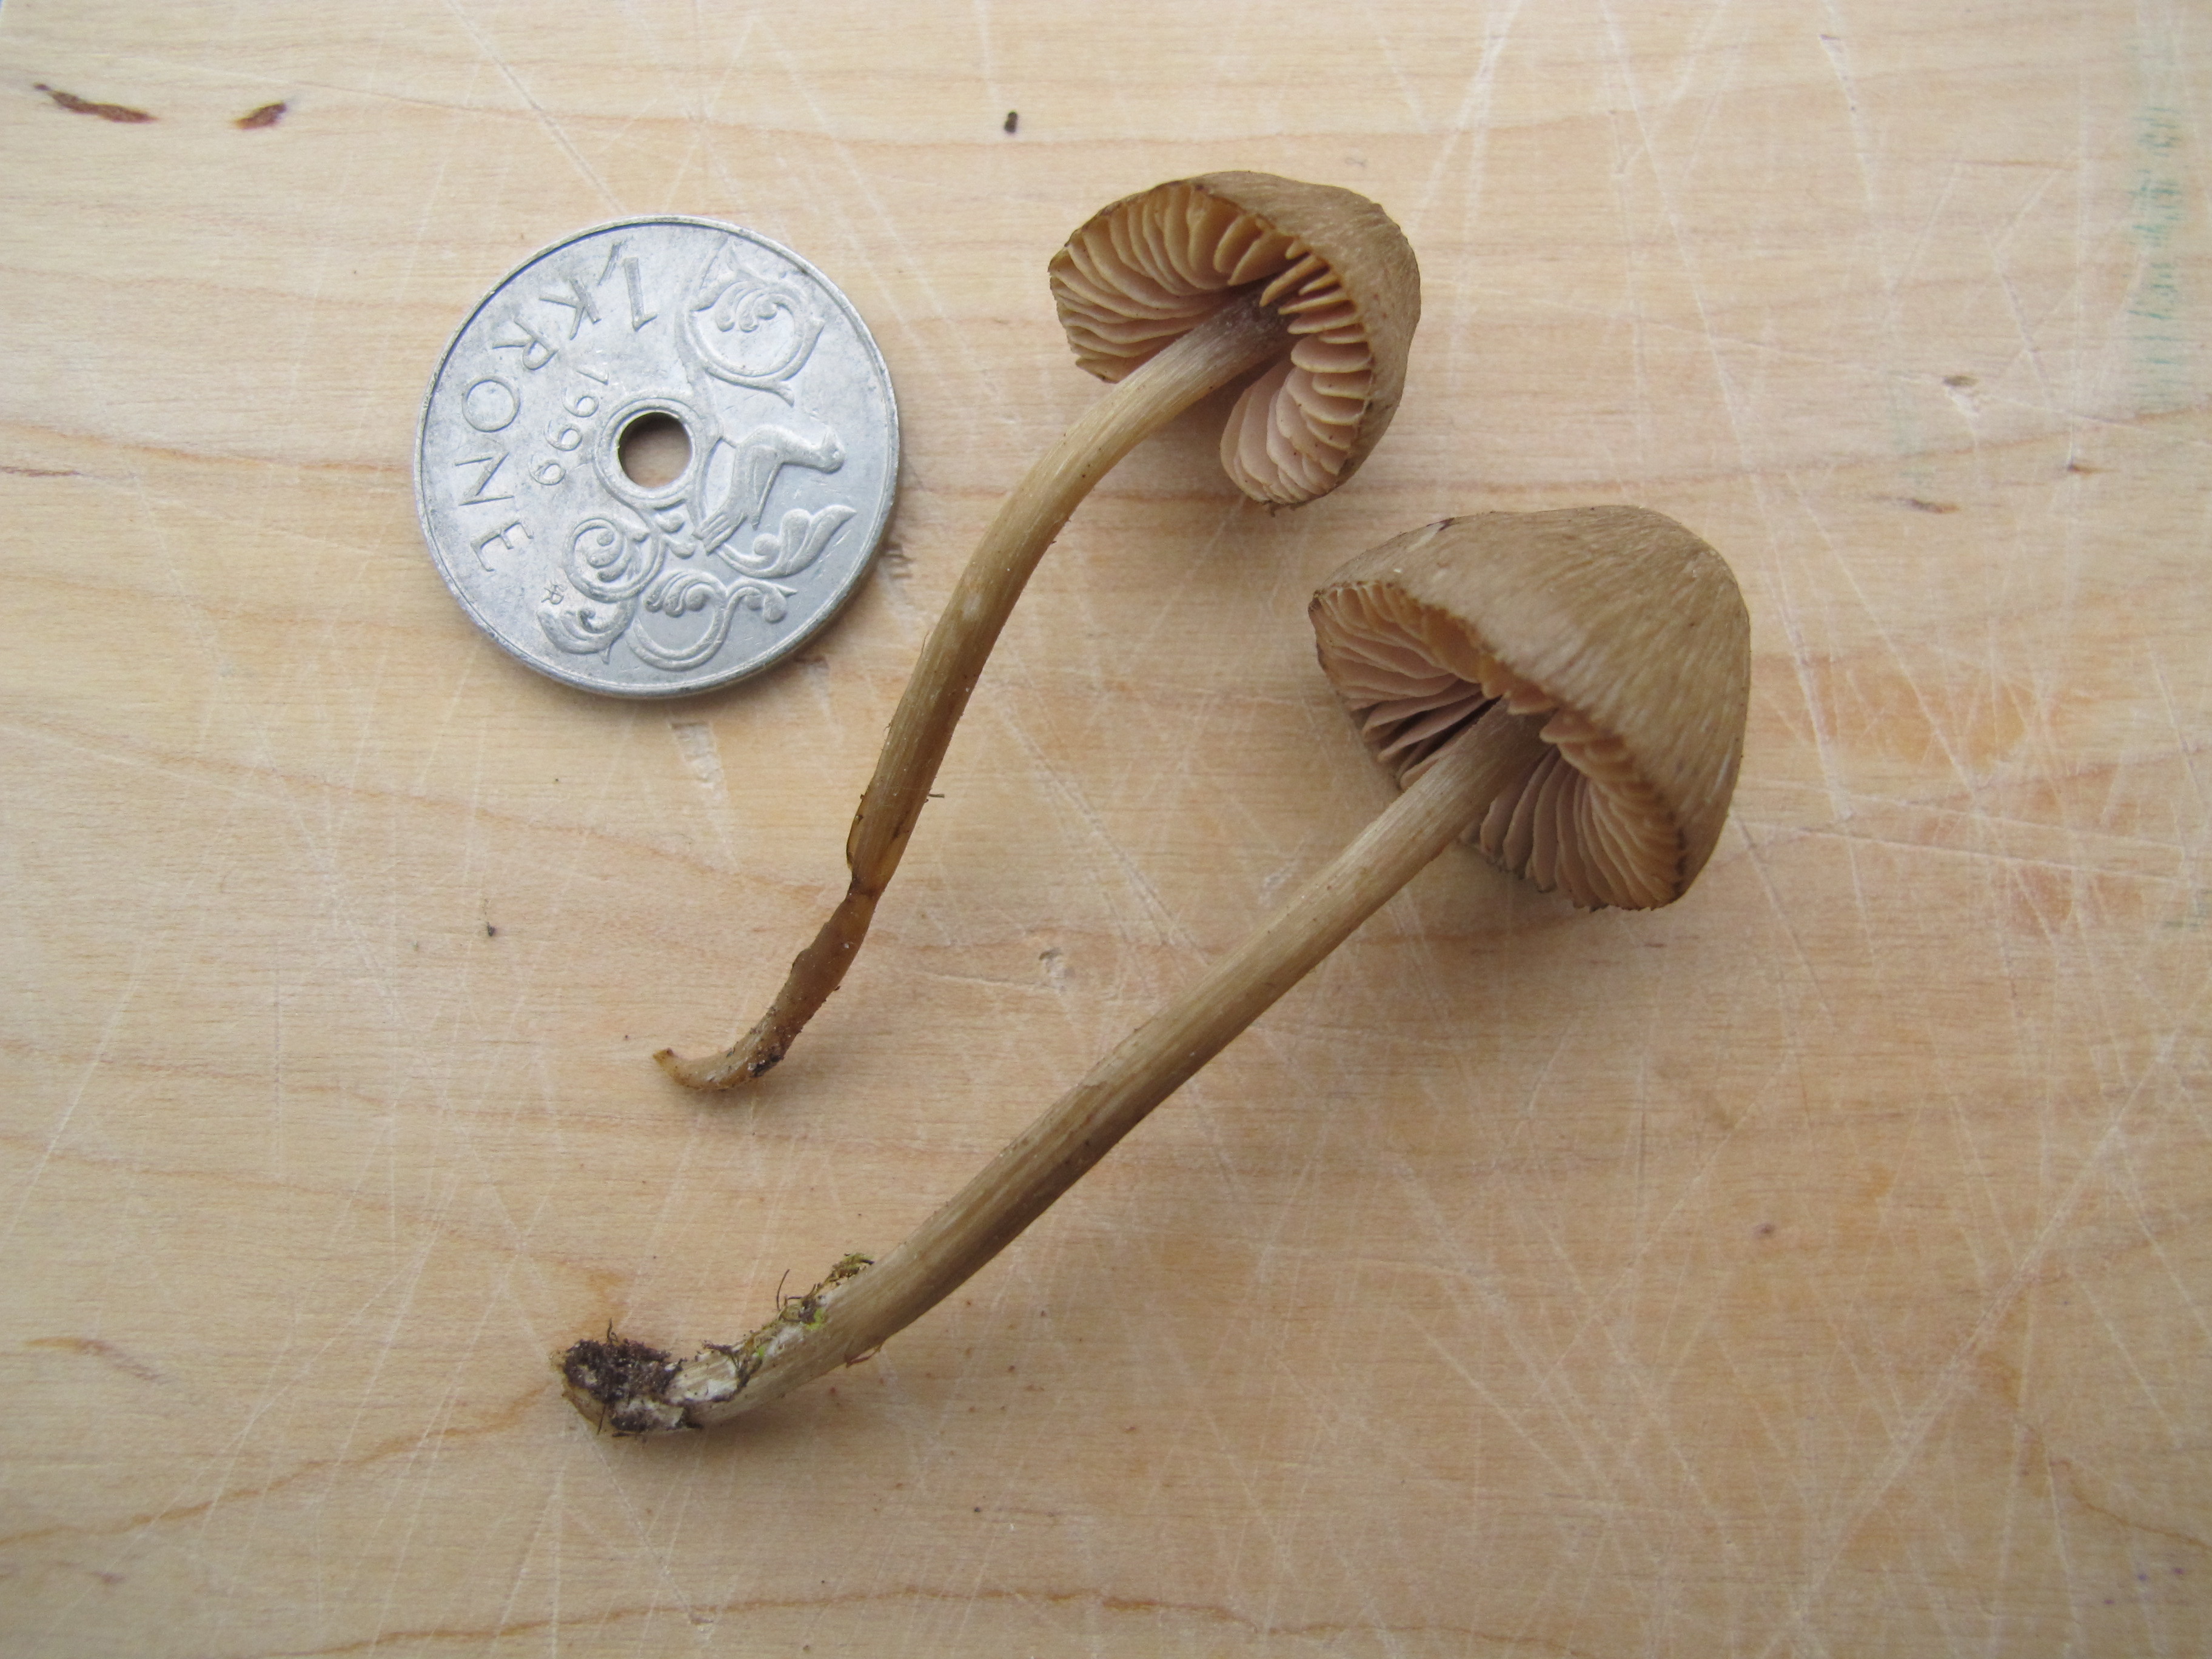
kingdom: Fungi
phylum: Basidiomycota
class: Agaricomycetes
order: Agaricales
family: Entolomataceae
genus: Entoloma
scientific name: Entoloma subcuboideum
